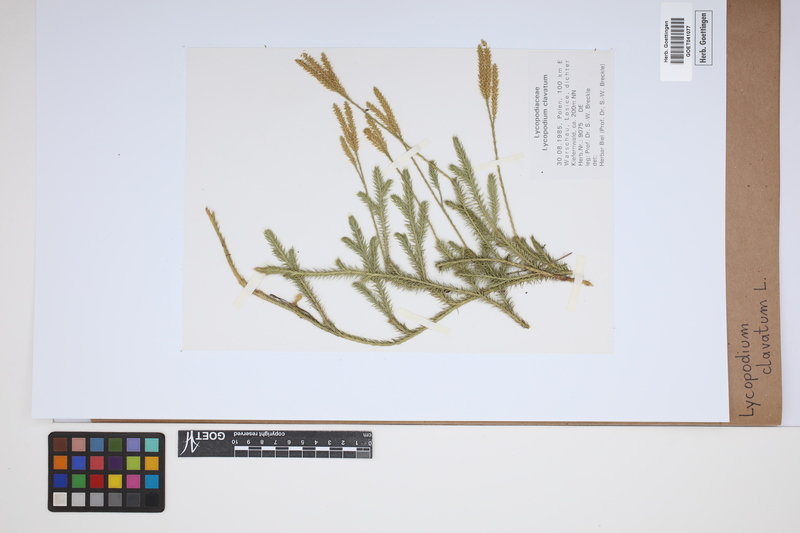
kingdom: Plantae
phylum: Tracheophyta
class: Lycopodiopsida
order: Lycopodiales
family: Lycopodiaceae
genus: Lycopodium
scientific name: Lycopodium clavatum
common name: Stag's-horn clubmoss
